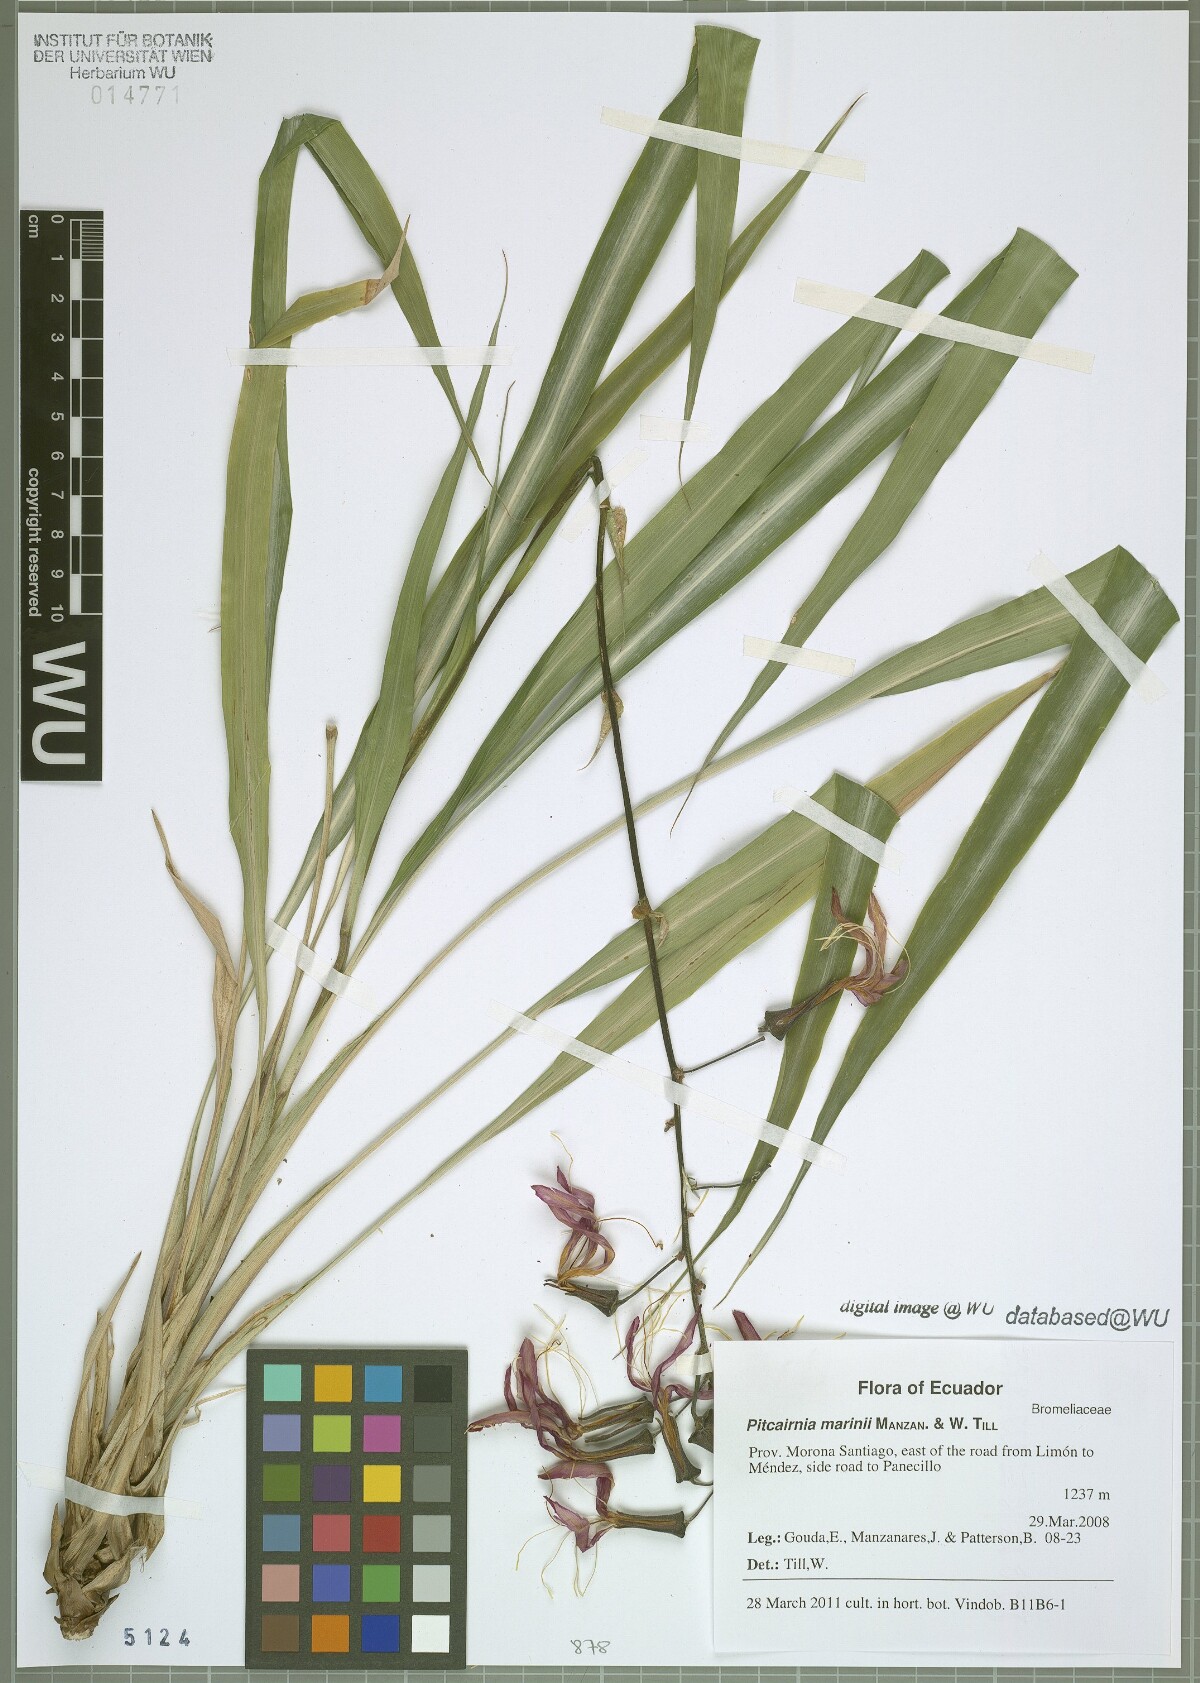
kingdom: Plantae
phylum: Tracheophyta
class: Liliopsida
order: Poales
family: Bromeliaceae
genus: Pitcairnia
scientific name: Pitcairnia marinii
